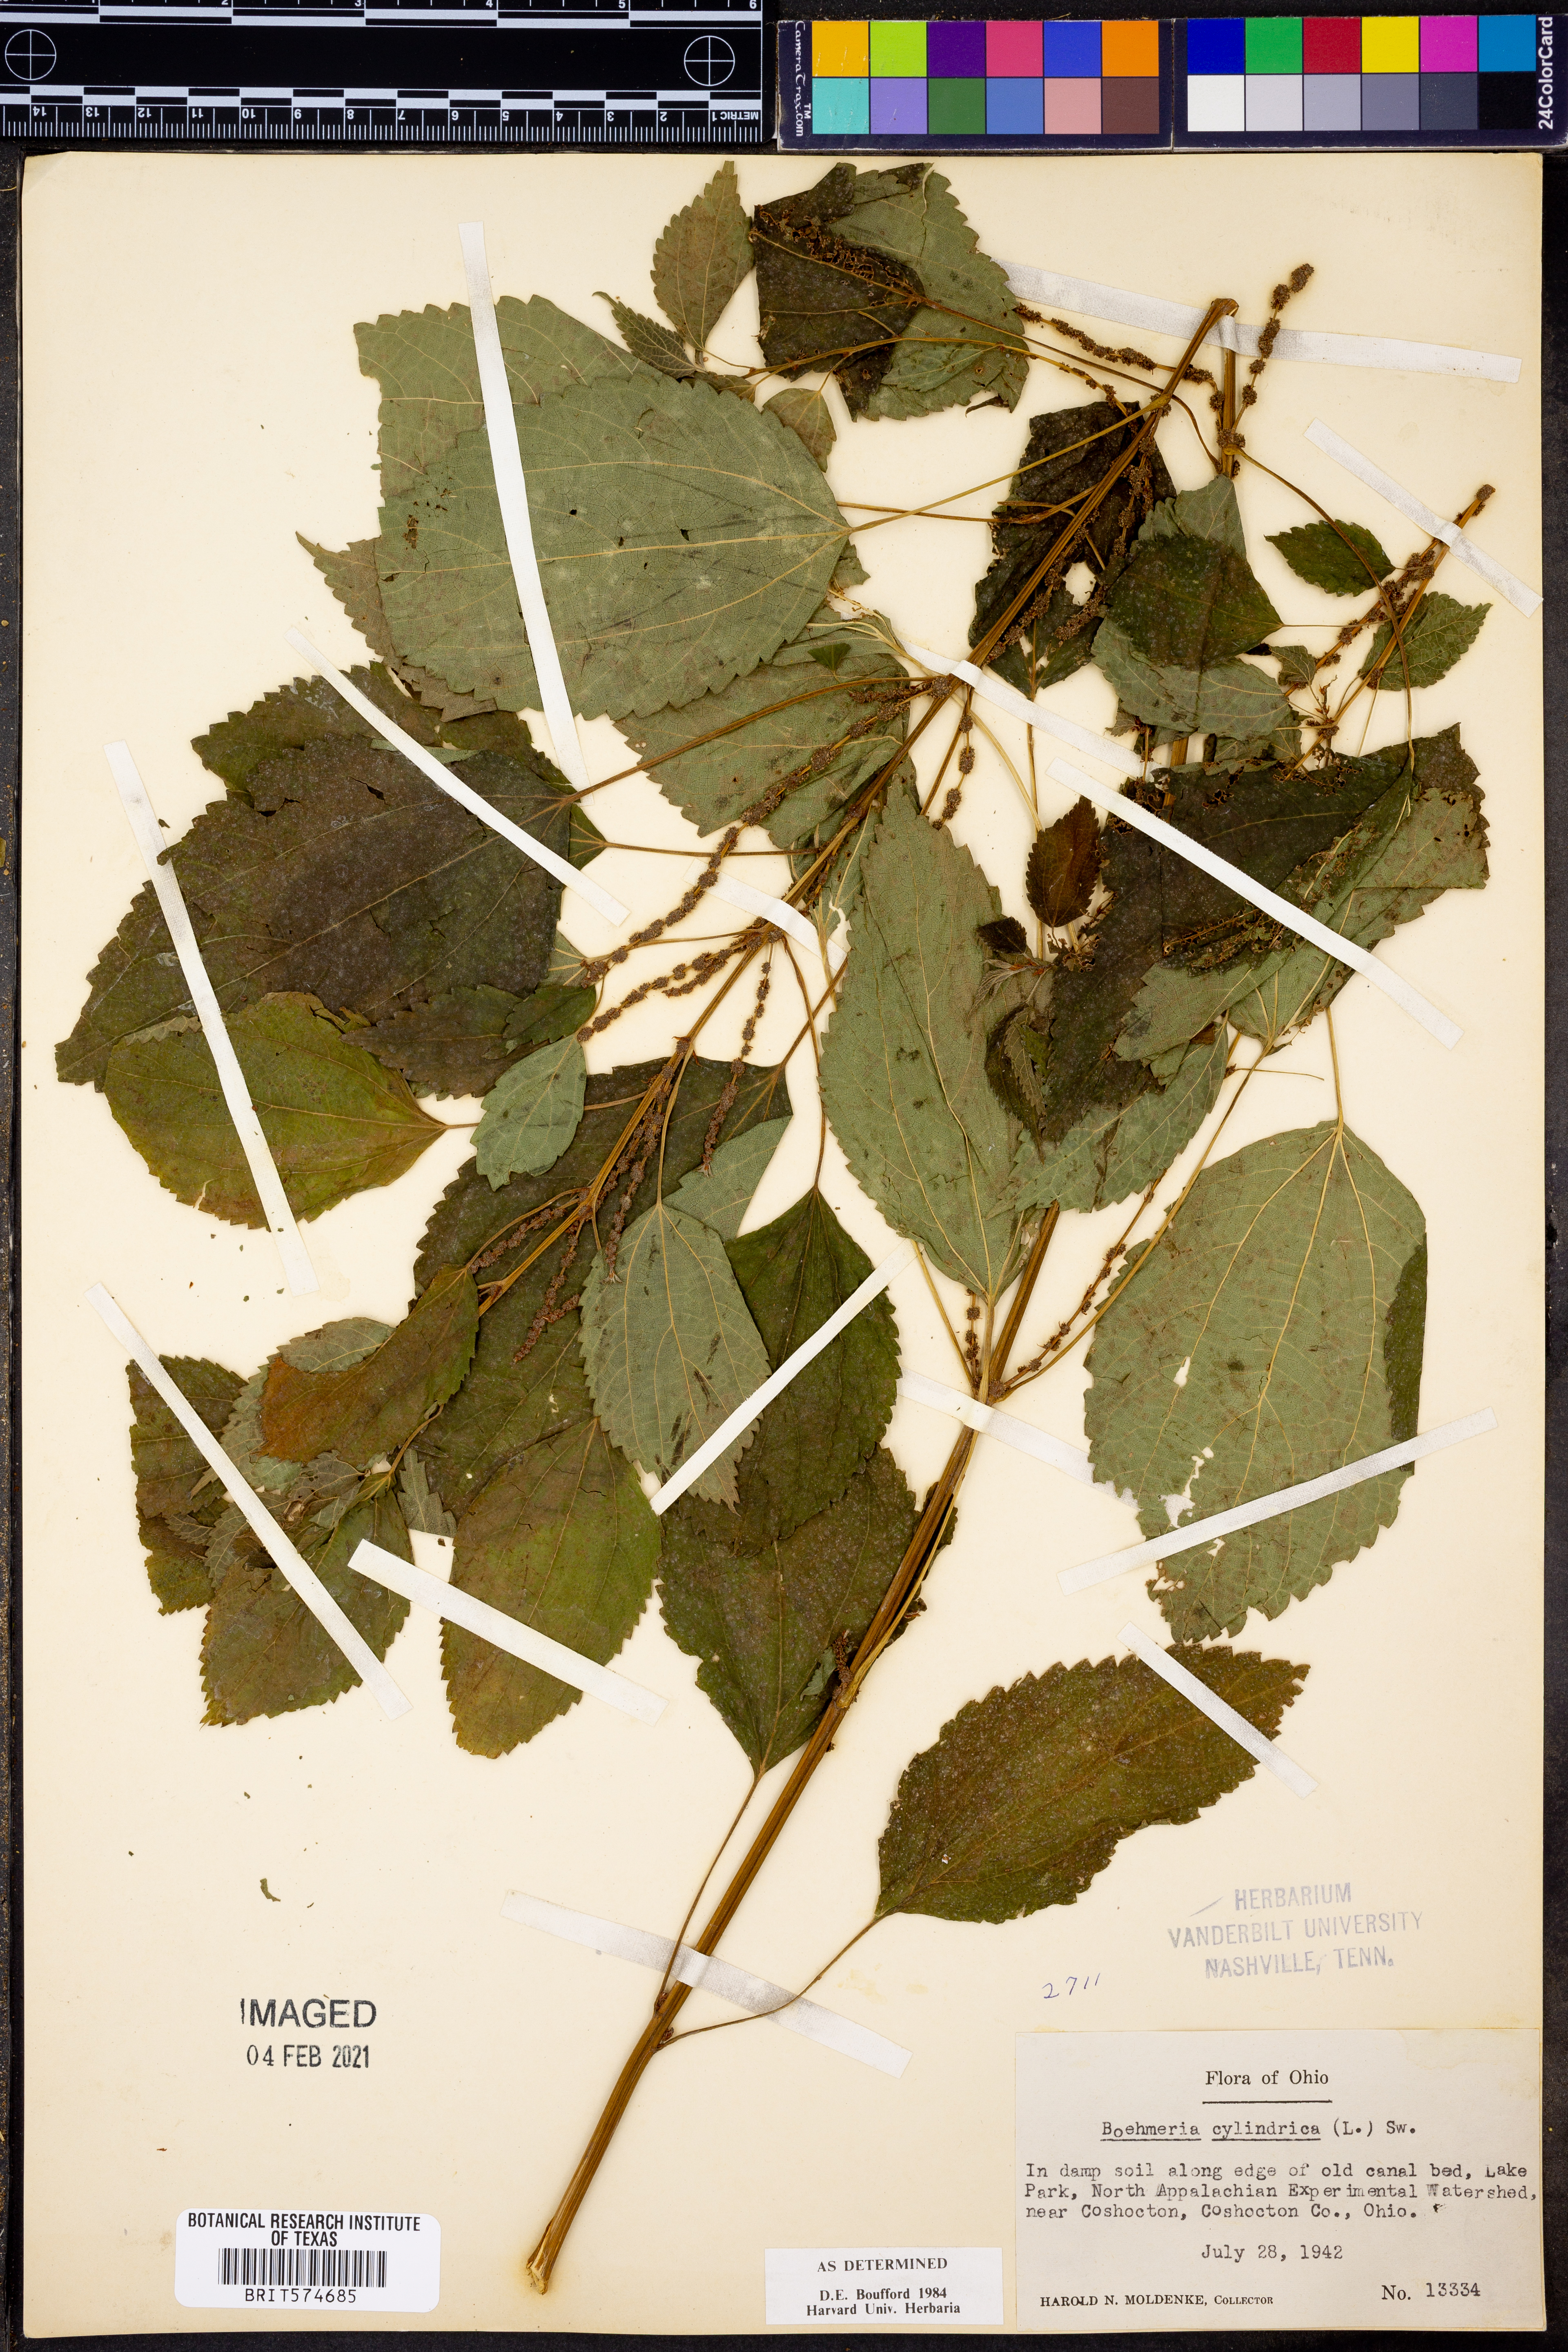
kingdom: Plantae
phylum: Tracheophyta
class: Magnoliopsida
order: Rosales
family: Urticaceae
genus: Boehmeria
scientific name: Boehmeria cylindrica
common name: Bog-hemp
